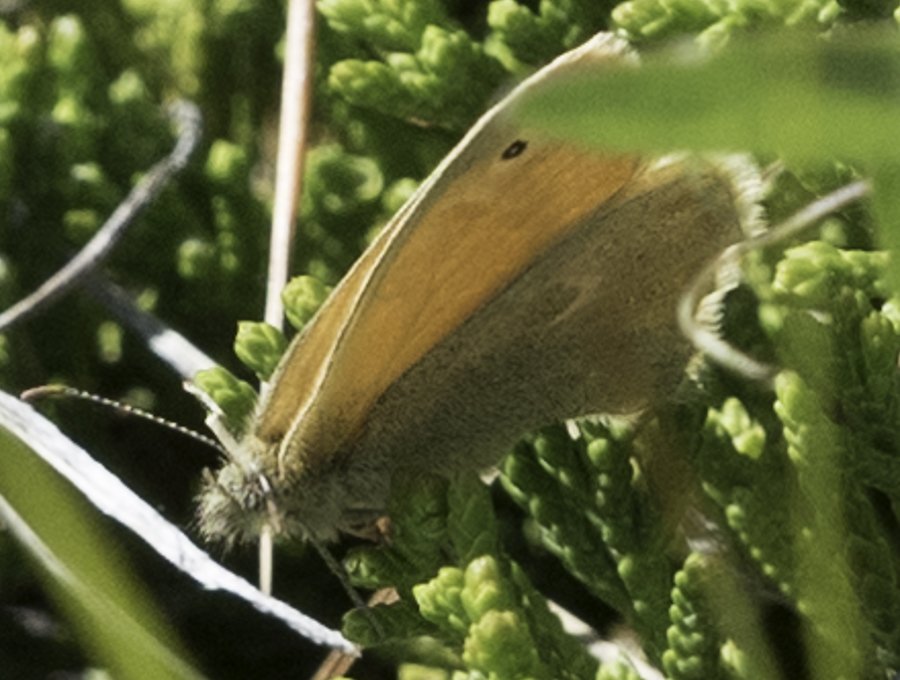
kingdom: Animalia
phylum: Arthropoda
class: Insecta
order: Lepidoptera
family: Nymphalidae
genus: Coenonympha
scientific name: Coenonympha tullia
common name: Large Heath
